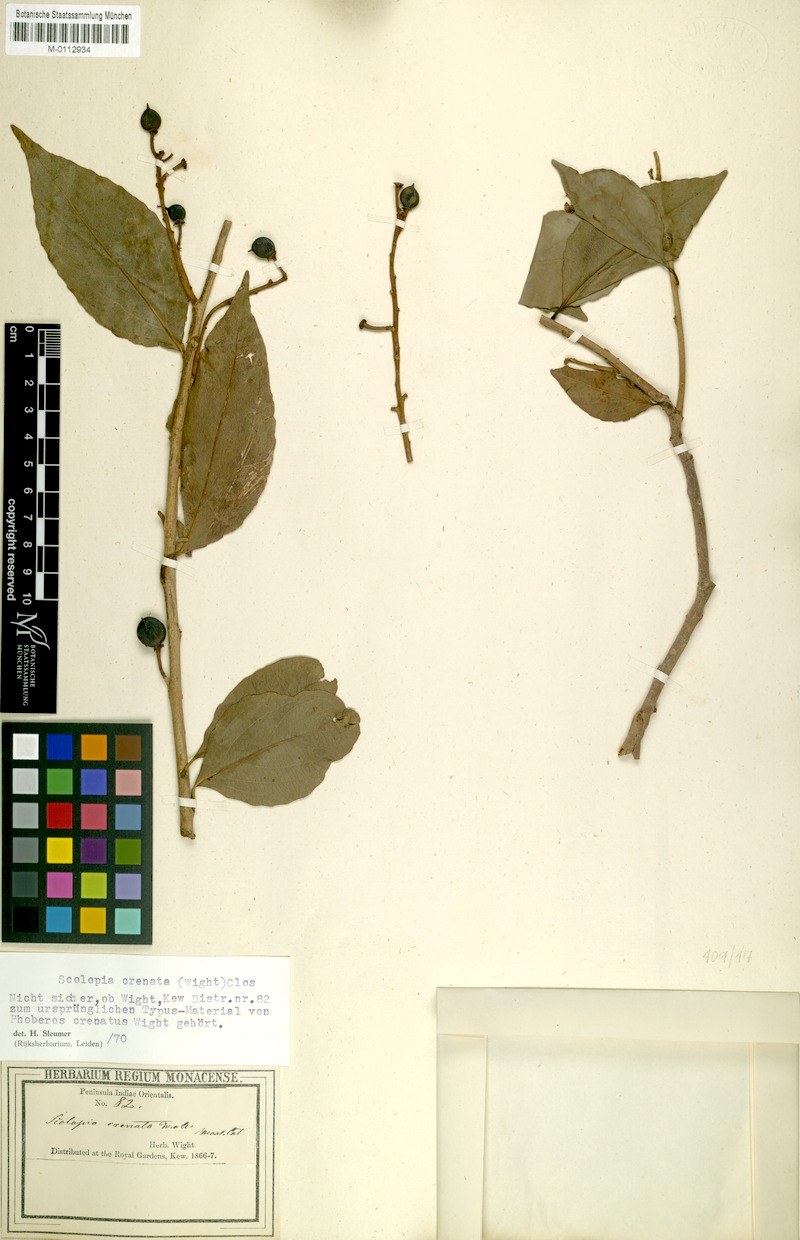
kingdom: Plantae
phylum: Tracheophyta
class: Magnoliopsida
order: Malpighiales
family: Salicaceae
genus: Scolopia
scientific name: Scolopia crenata
